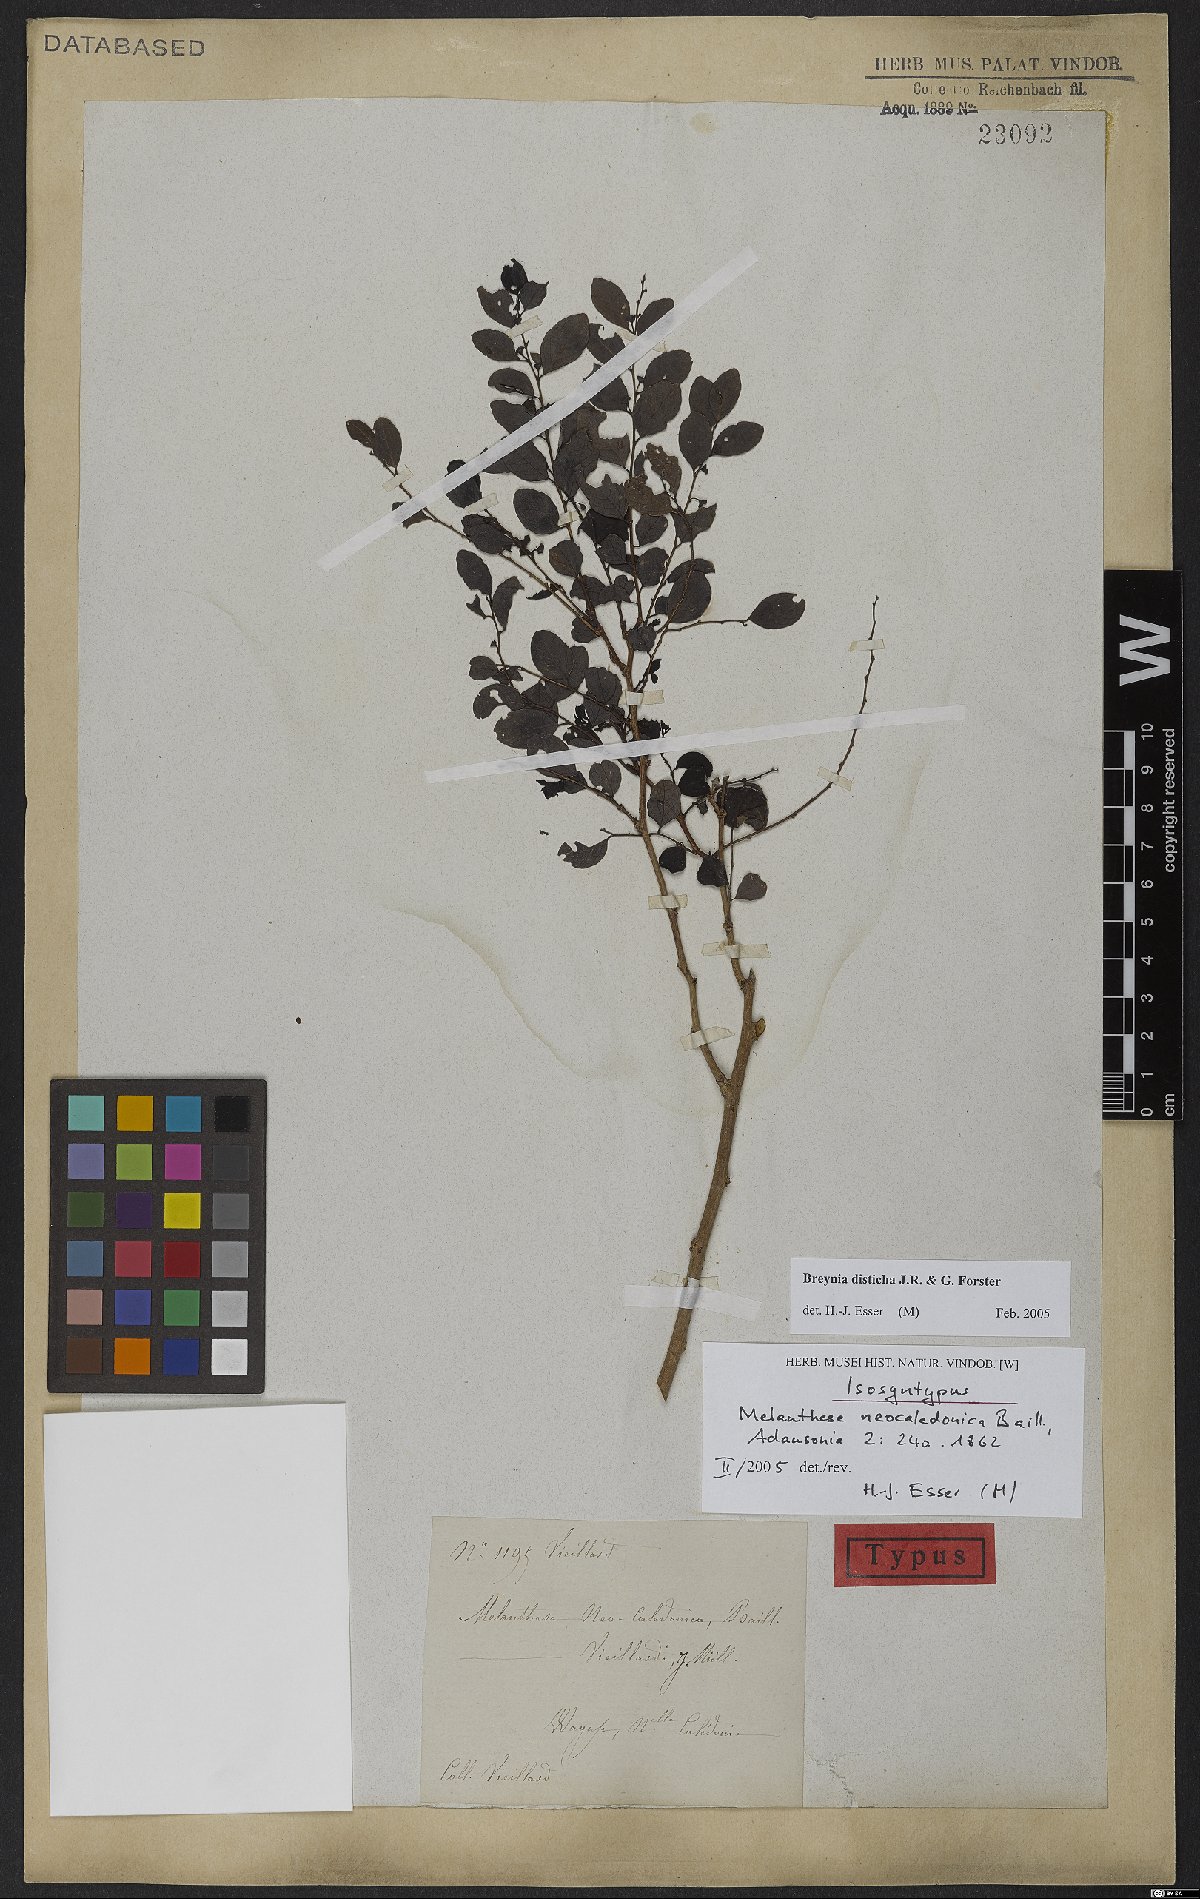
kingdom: Plantae
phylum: Tracheophyta
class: Magnoliopsida
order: Malpighiales
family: Phyllanthaceae
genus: Breynia
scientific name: Breynia disticha
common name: Snowbush
